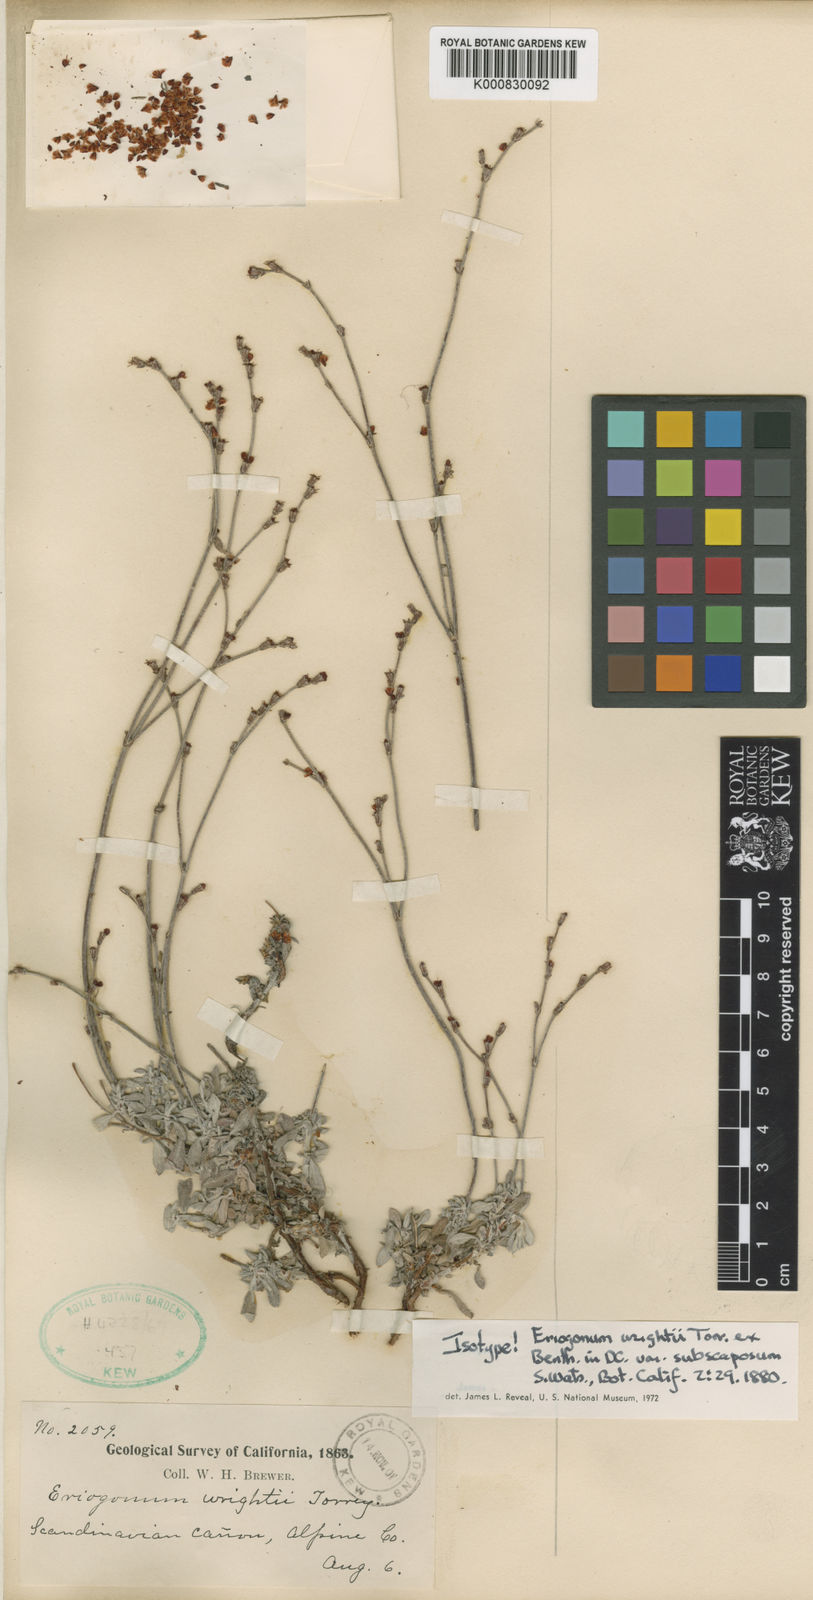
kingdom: Plantae
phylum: Tracheophyta
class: Magnoliopsida
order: Caryophyllales
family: Polygonaceae
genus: Eriogonum
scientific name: Eriogonum wrightii
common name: Bastard-sage
